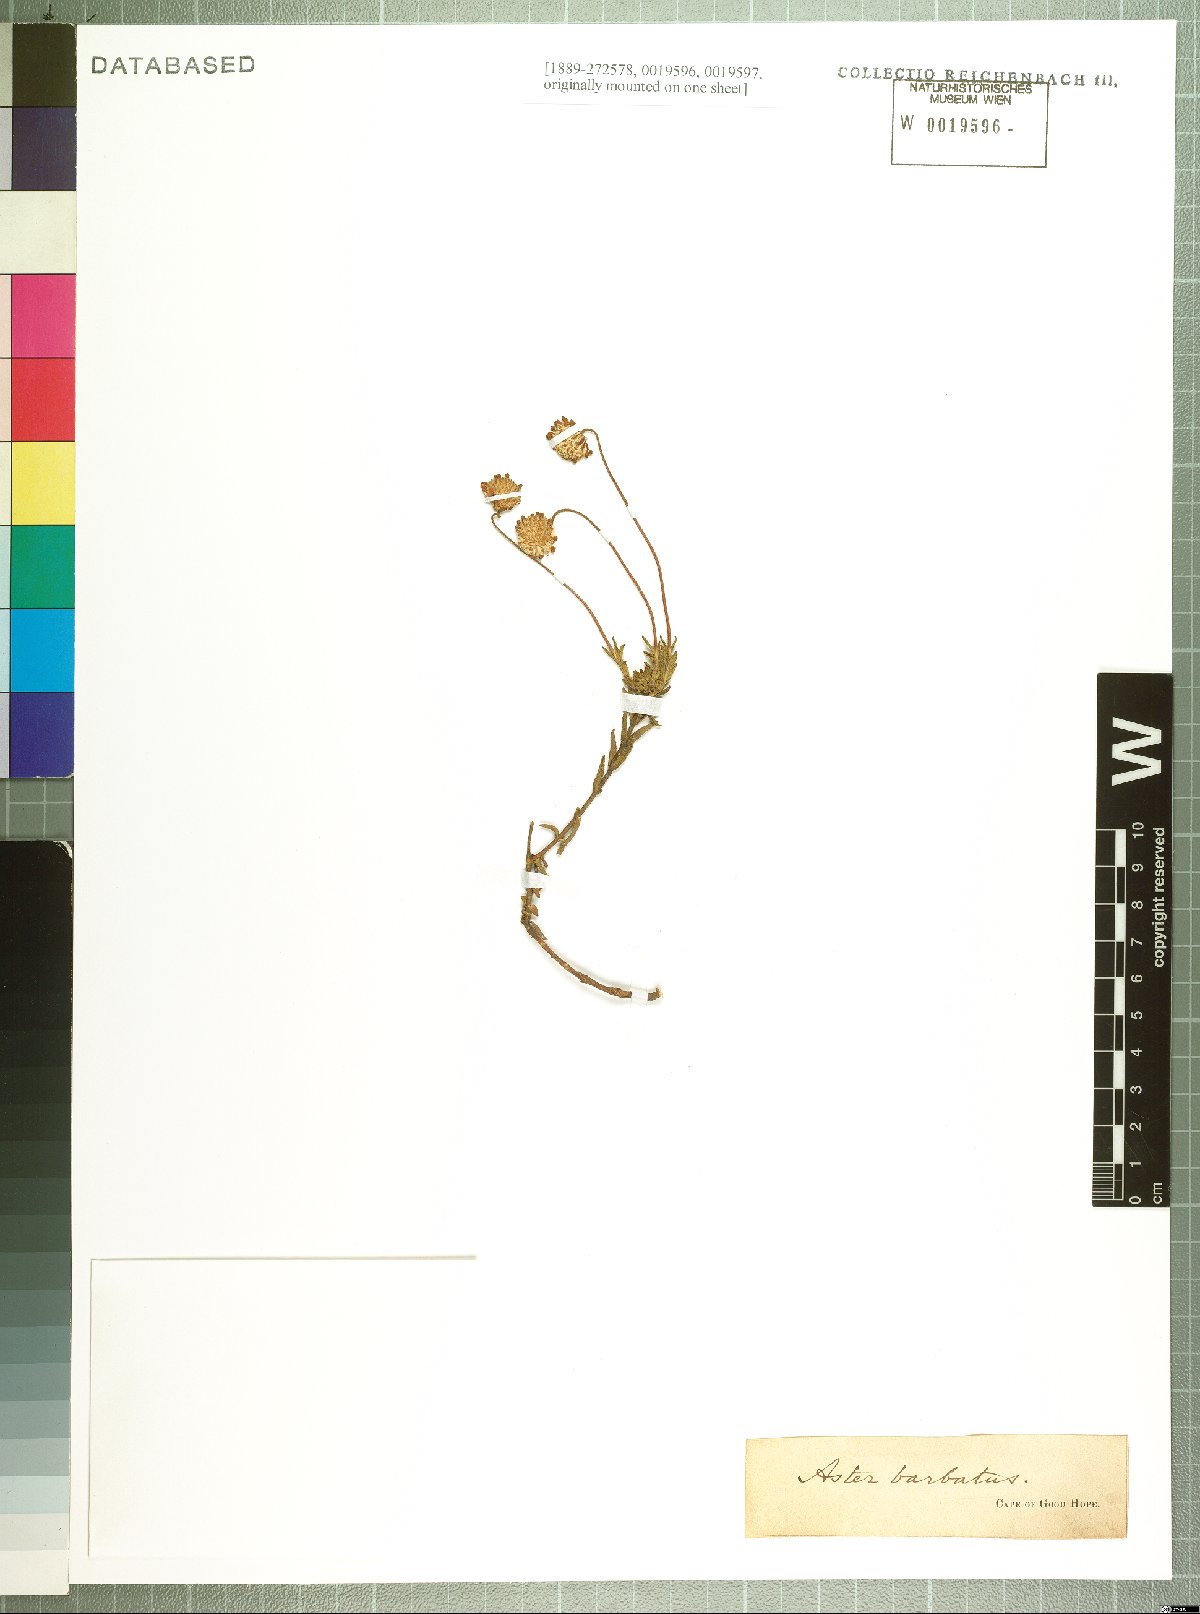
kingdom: Plantae
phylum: Tracheophyta
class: Magnoliopsida
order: Asterales
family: Asteraceae
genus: Felicia
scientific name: Felicia ovata
